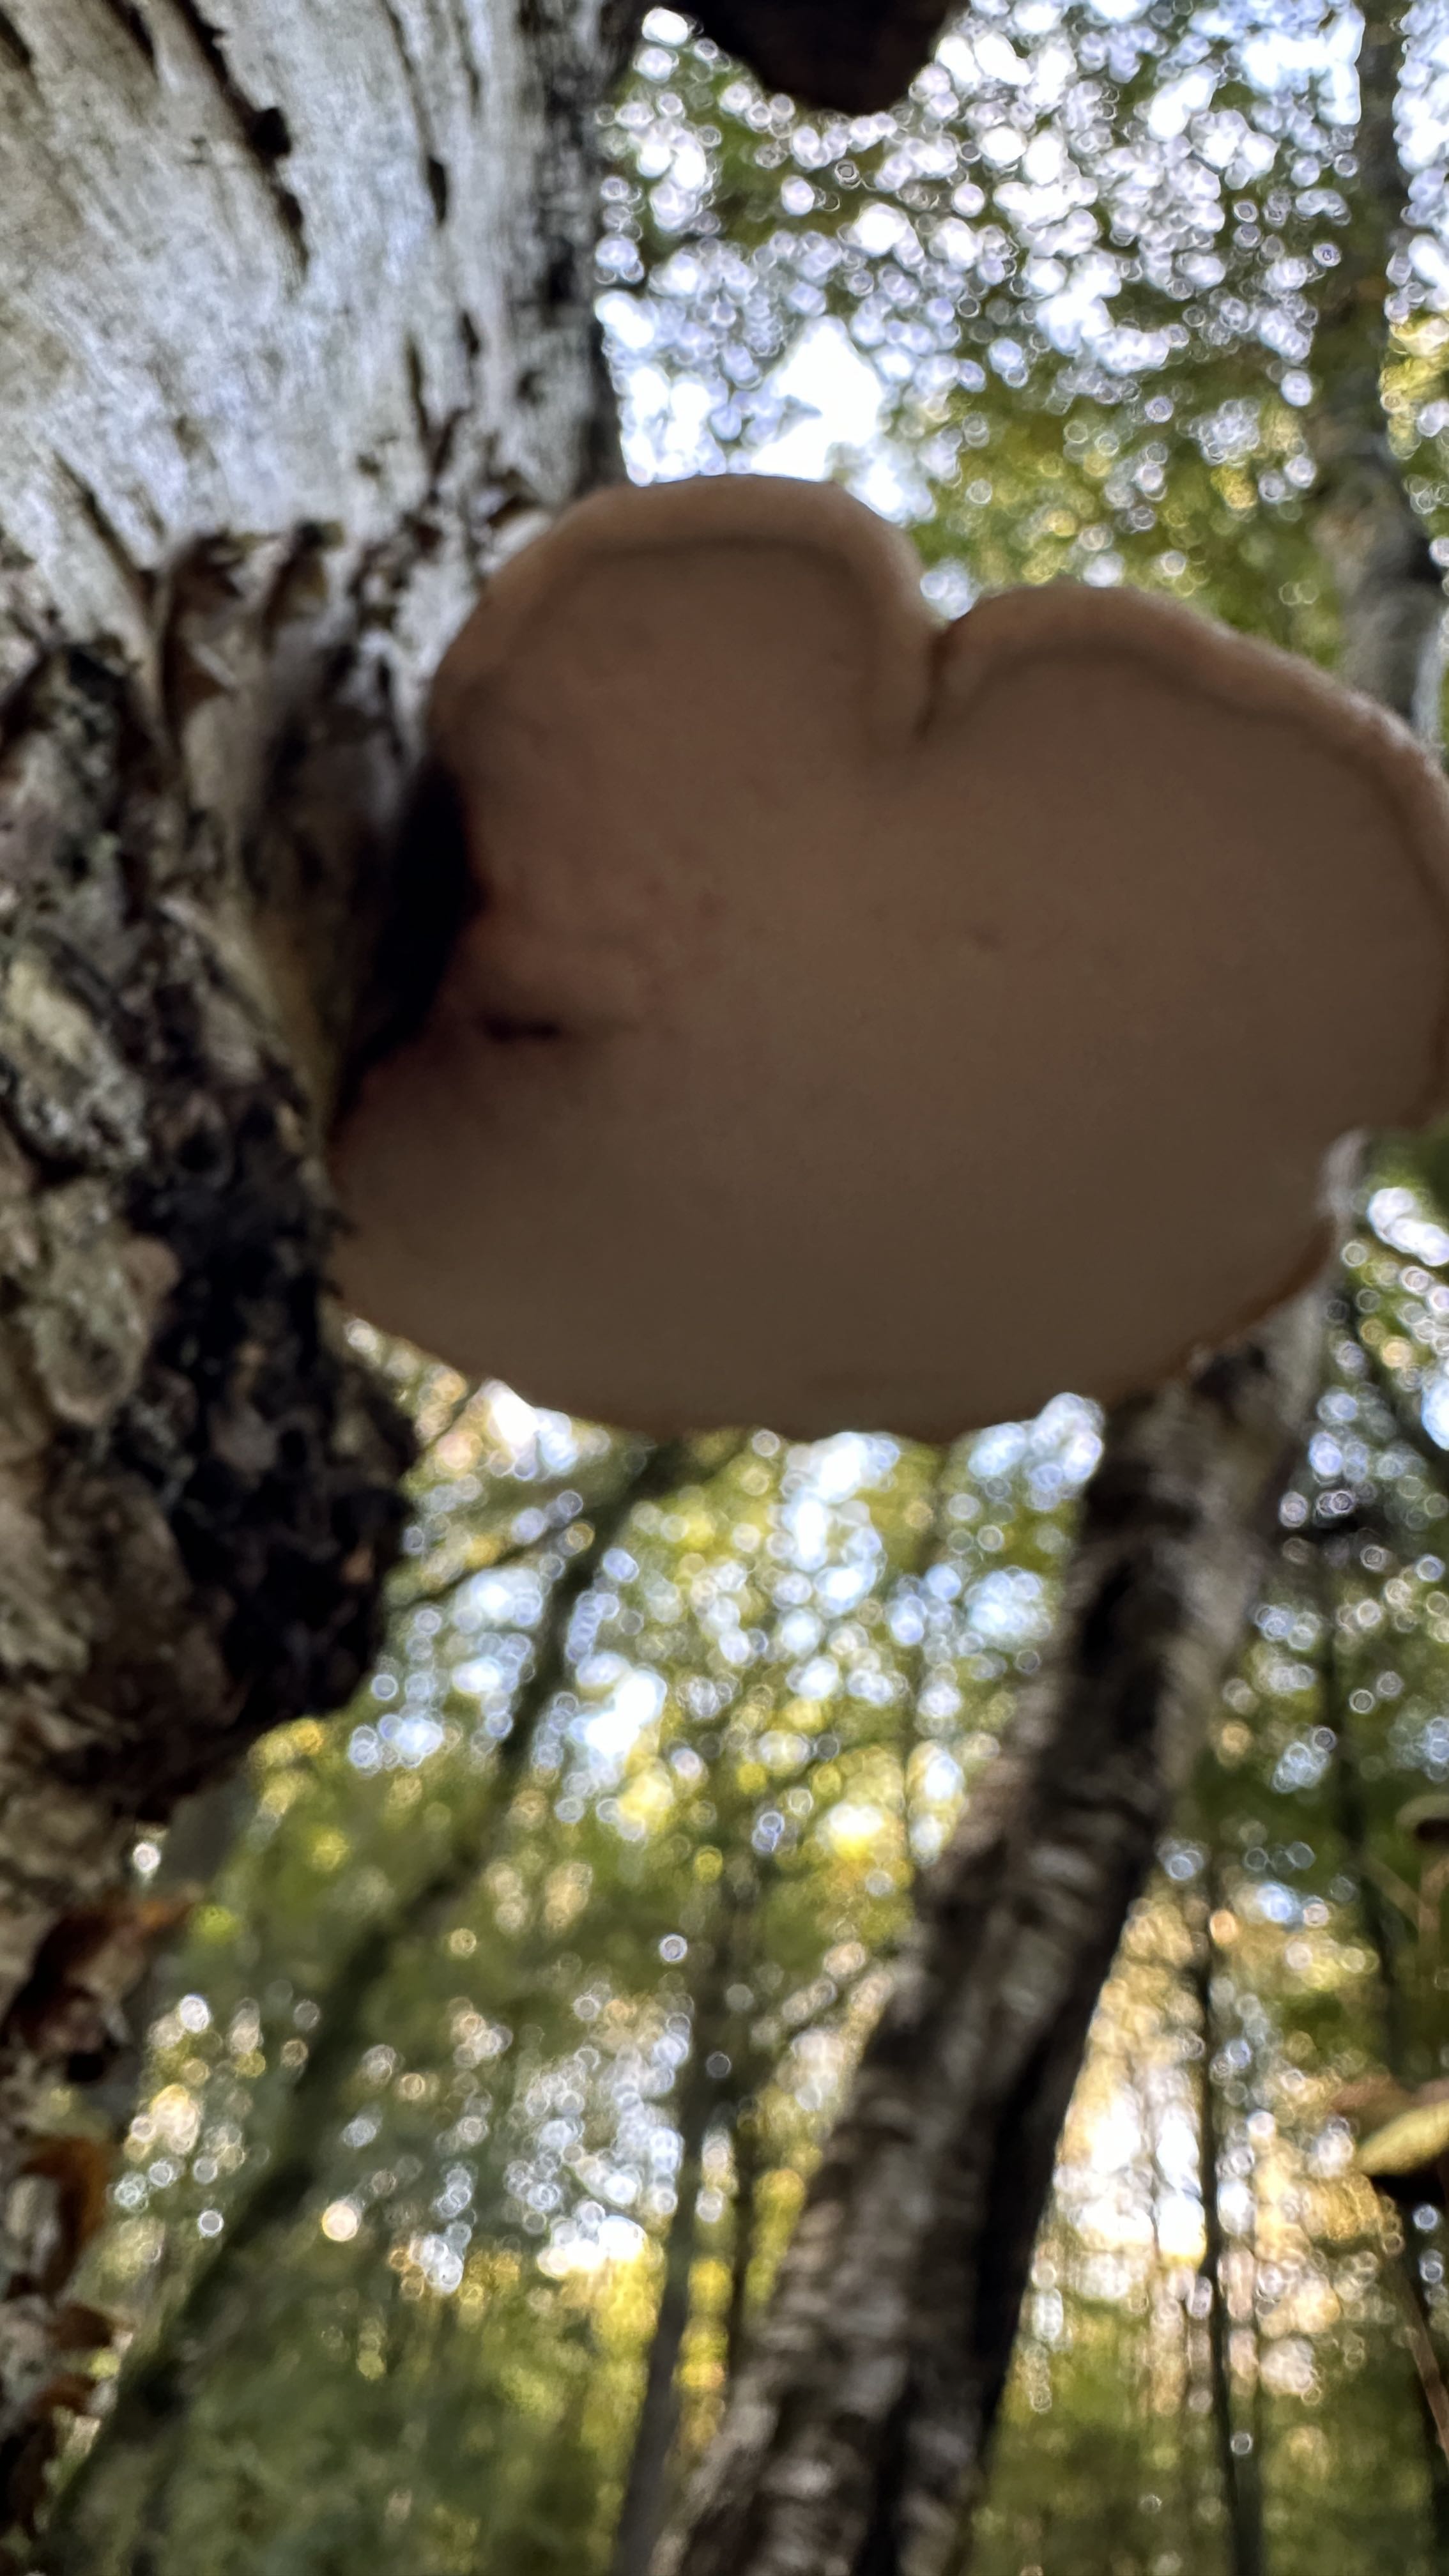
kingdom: Fungi
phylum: Basidiomycota
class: Agaricomycetes
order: Polyporales
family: Fomitopsidaceae
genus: Fomitopsis
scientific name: Fomitopsis betulina
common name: birkeporesvamp
